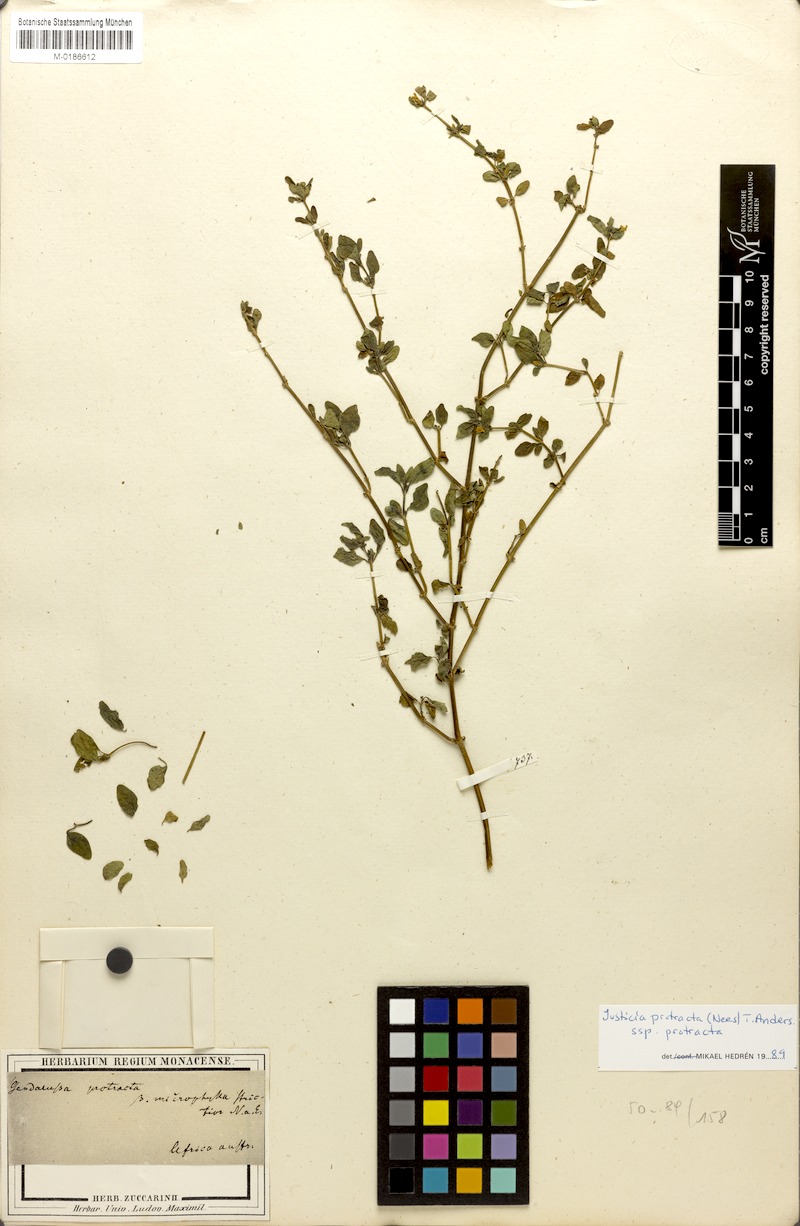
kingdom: Plantae
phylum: Tracheophyta
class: Magnoliopsida
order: Lamiales
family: Acanthaceae
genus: Justicia
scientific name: Justicia protracta
